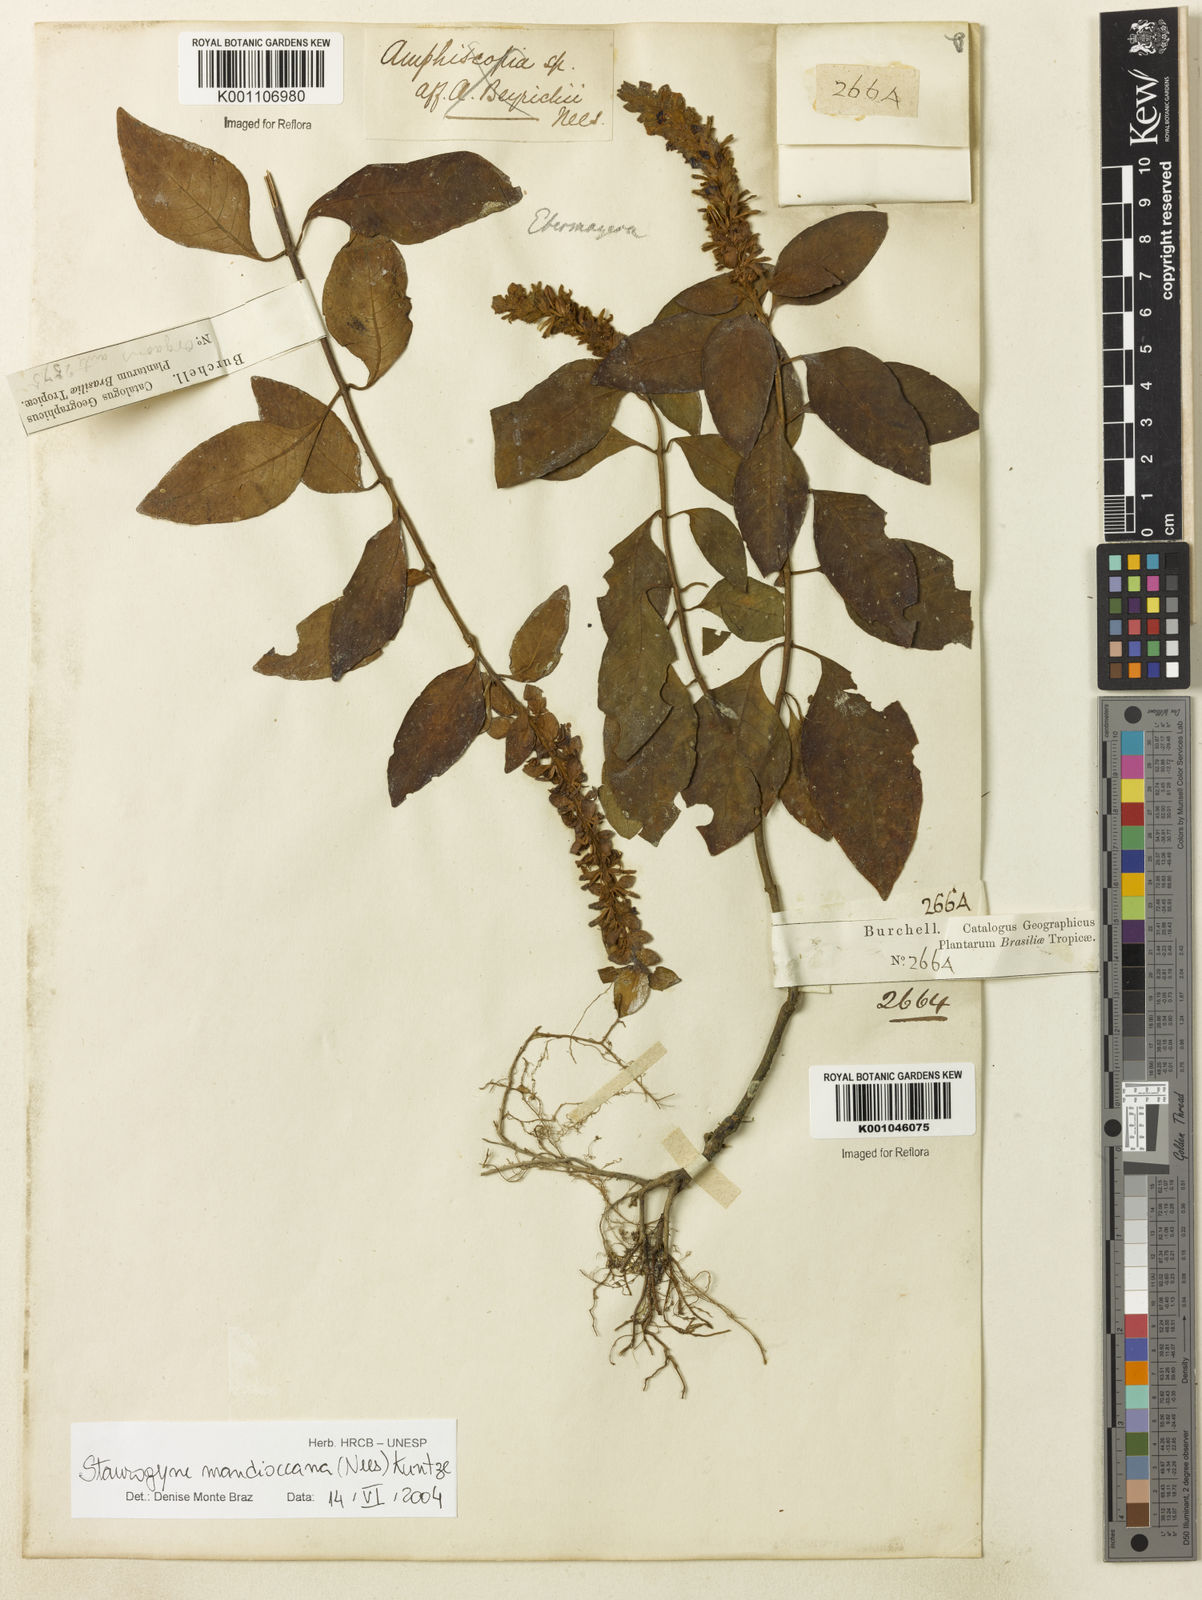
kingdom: Plantae
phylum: Tracheophyta
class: Magnoliopsida
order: Lamiales
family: Acanthaceae
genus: Staurogyne
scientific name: Staurogyne mandioccana
